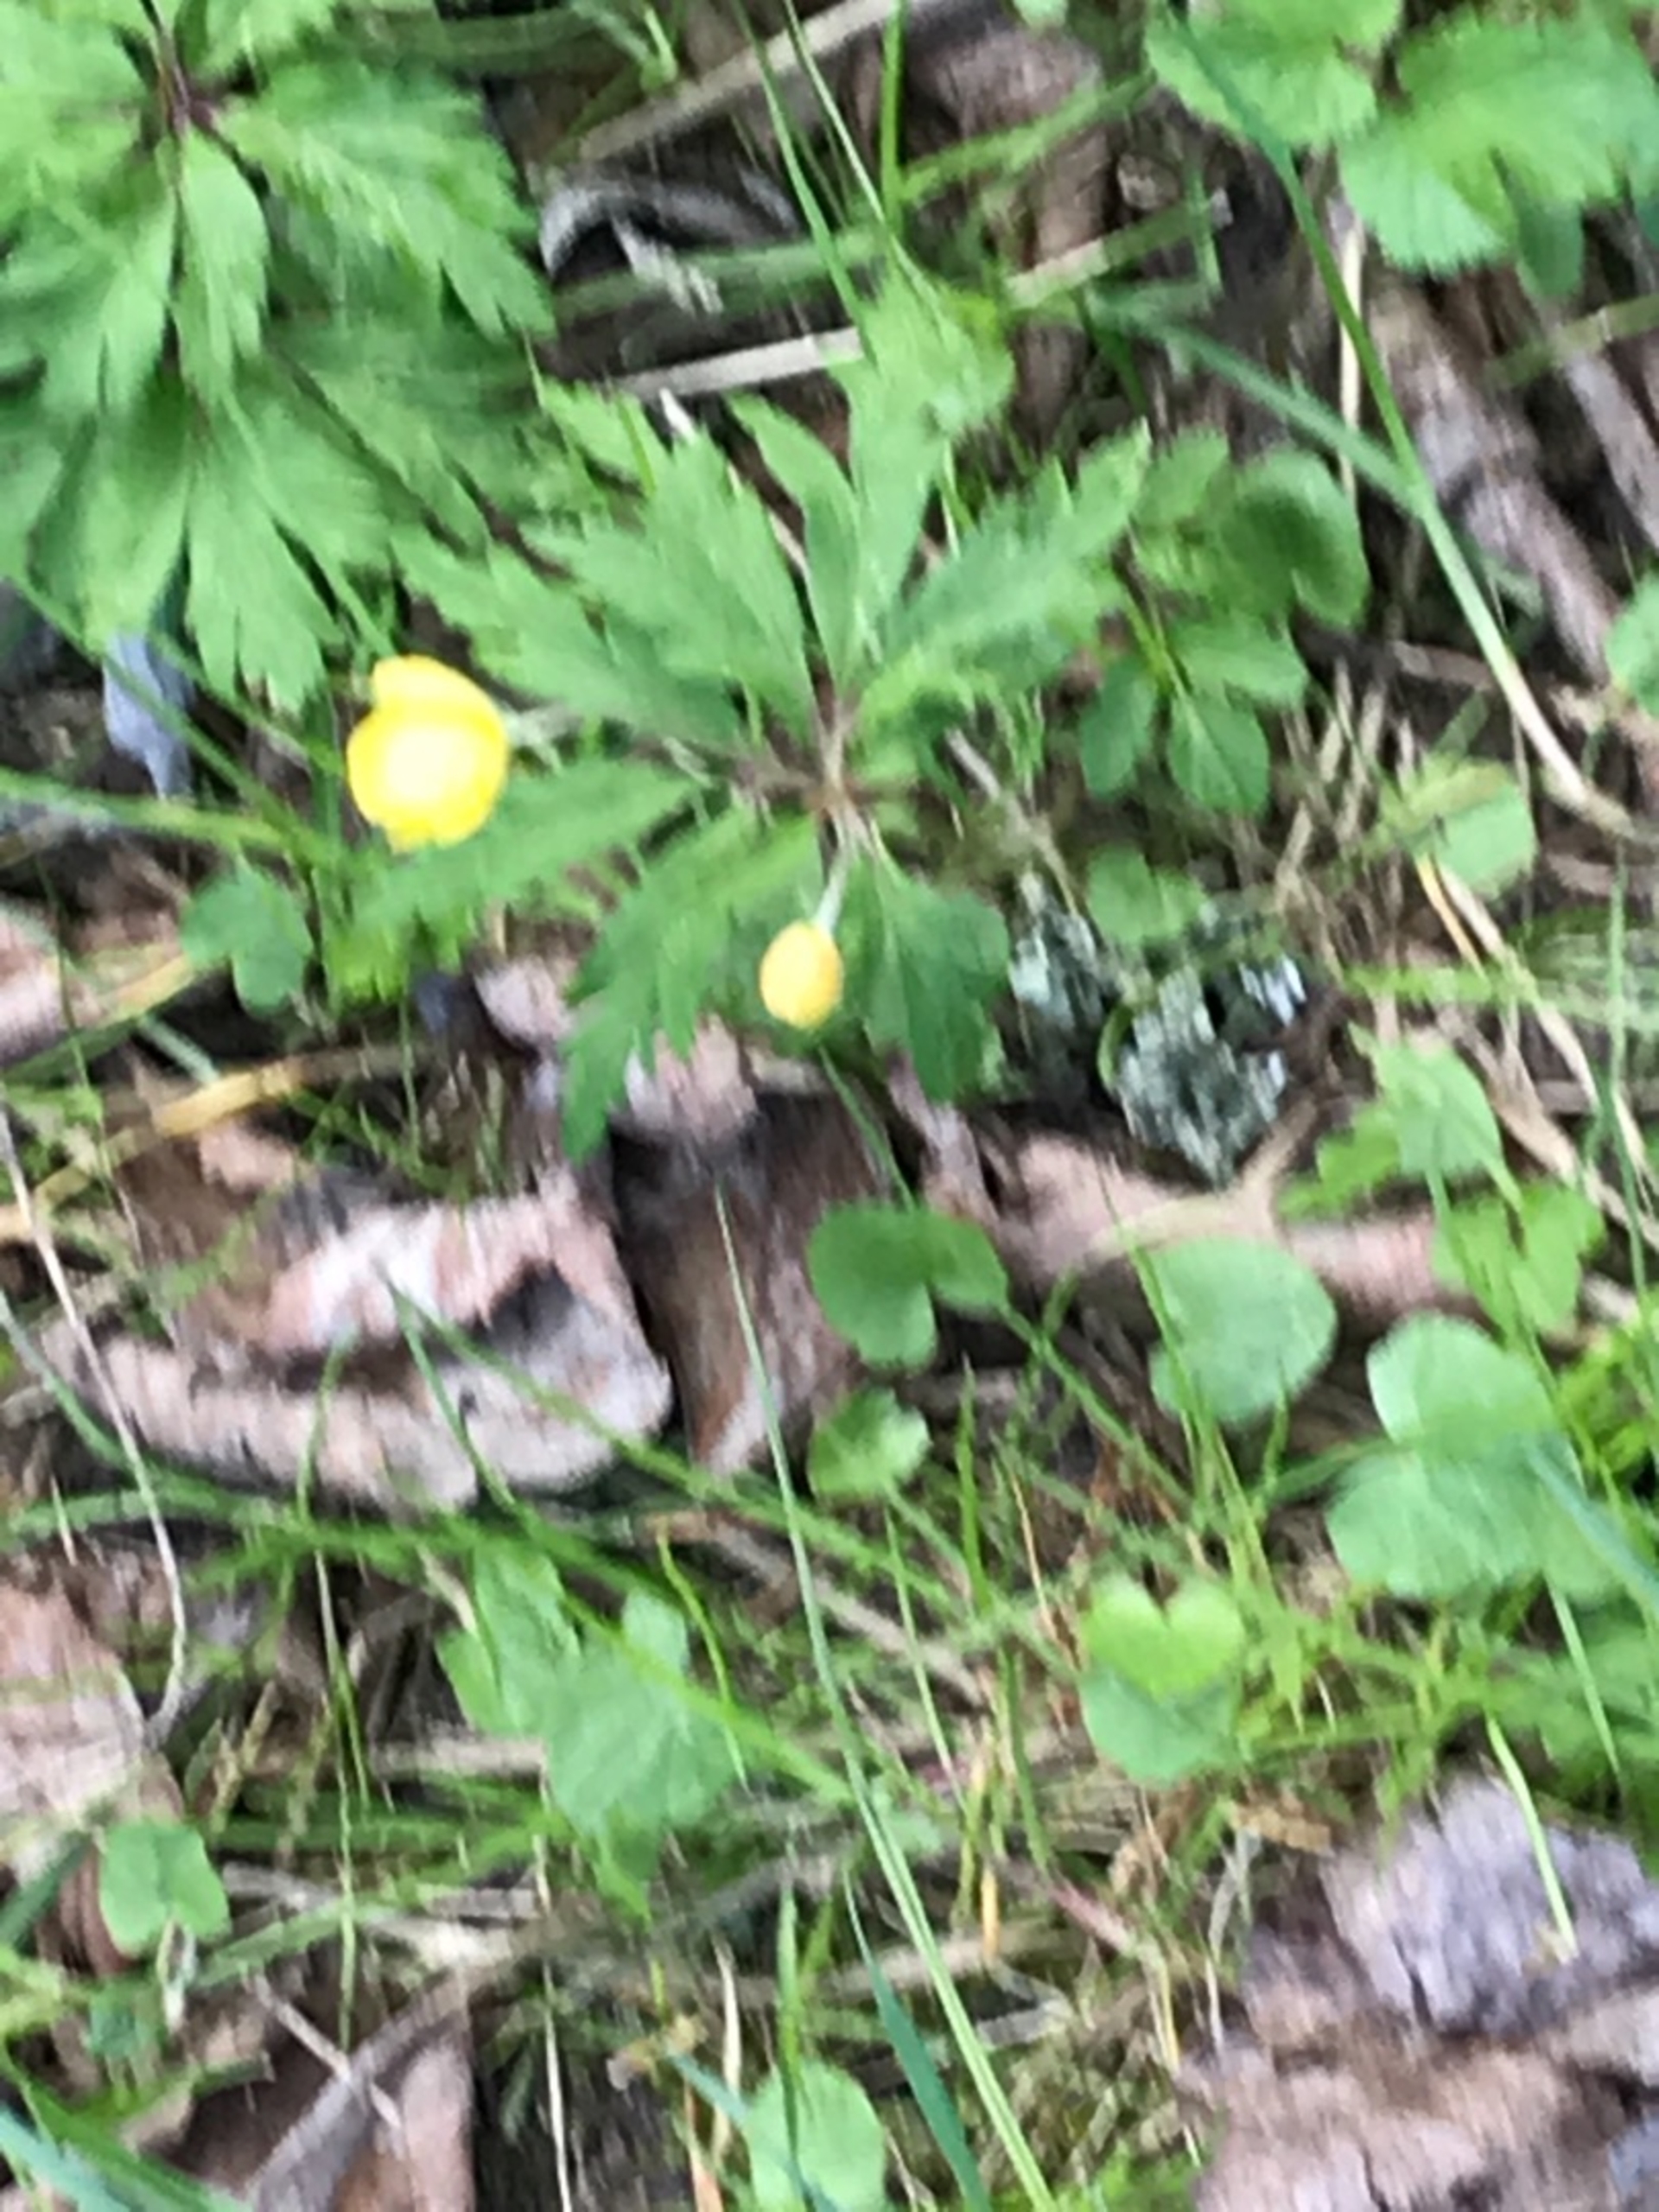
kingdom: Plantae
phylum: Tracheophyta
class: Magnoliopsida
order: Ranunculales
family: Ranunculaceae
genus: Anemone
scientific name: Anemone ranunculoides
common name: Gul anemone
